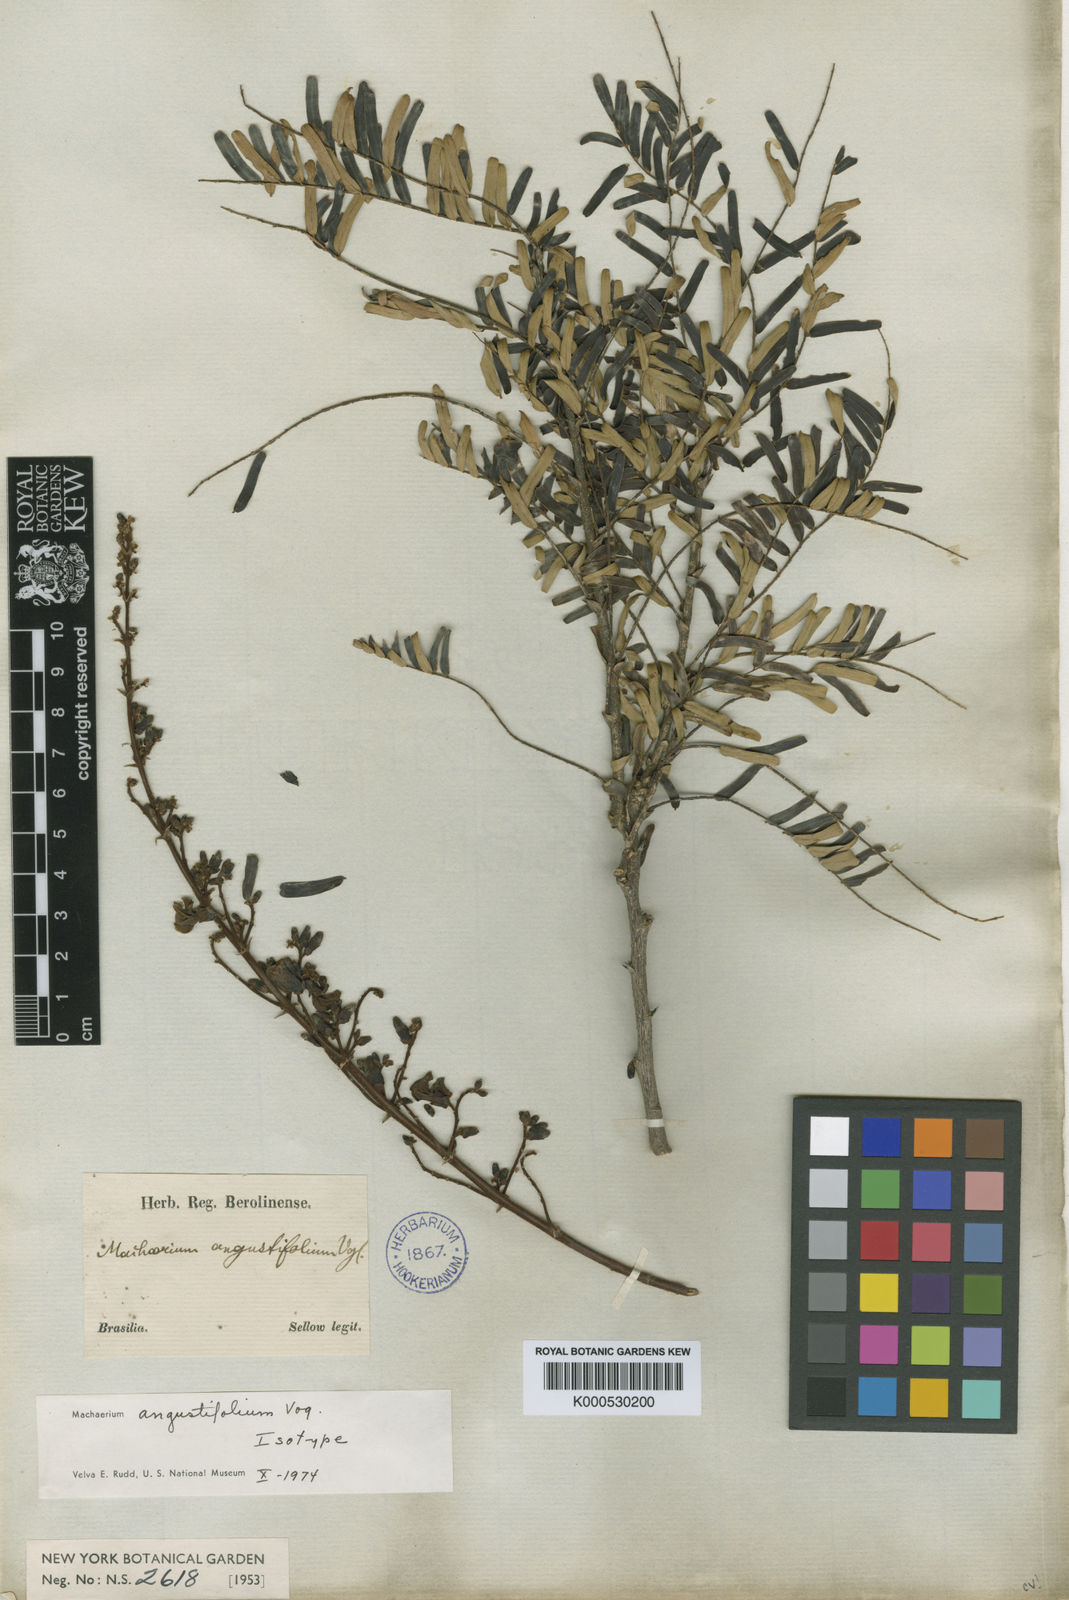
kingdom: Plantae
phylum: Tracheophyta
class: Magnoliopsida
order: Fabales
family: Fabaceae
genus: Machaerium
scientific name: Machaerium aculeatum
